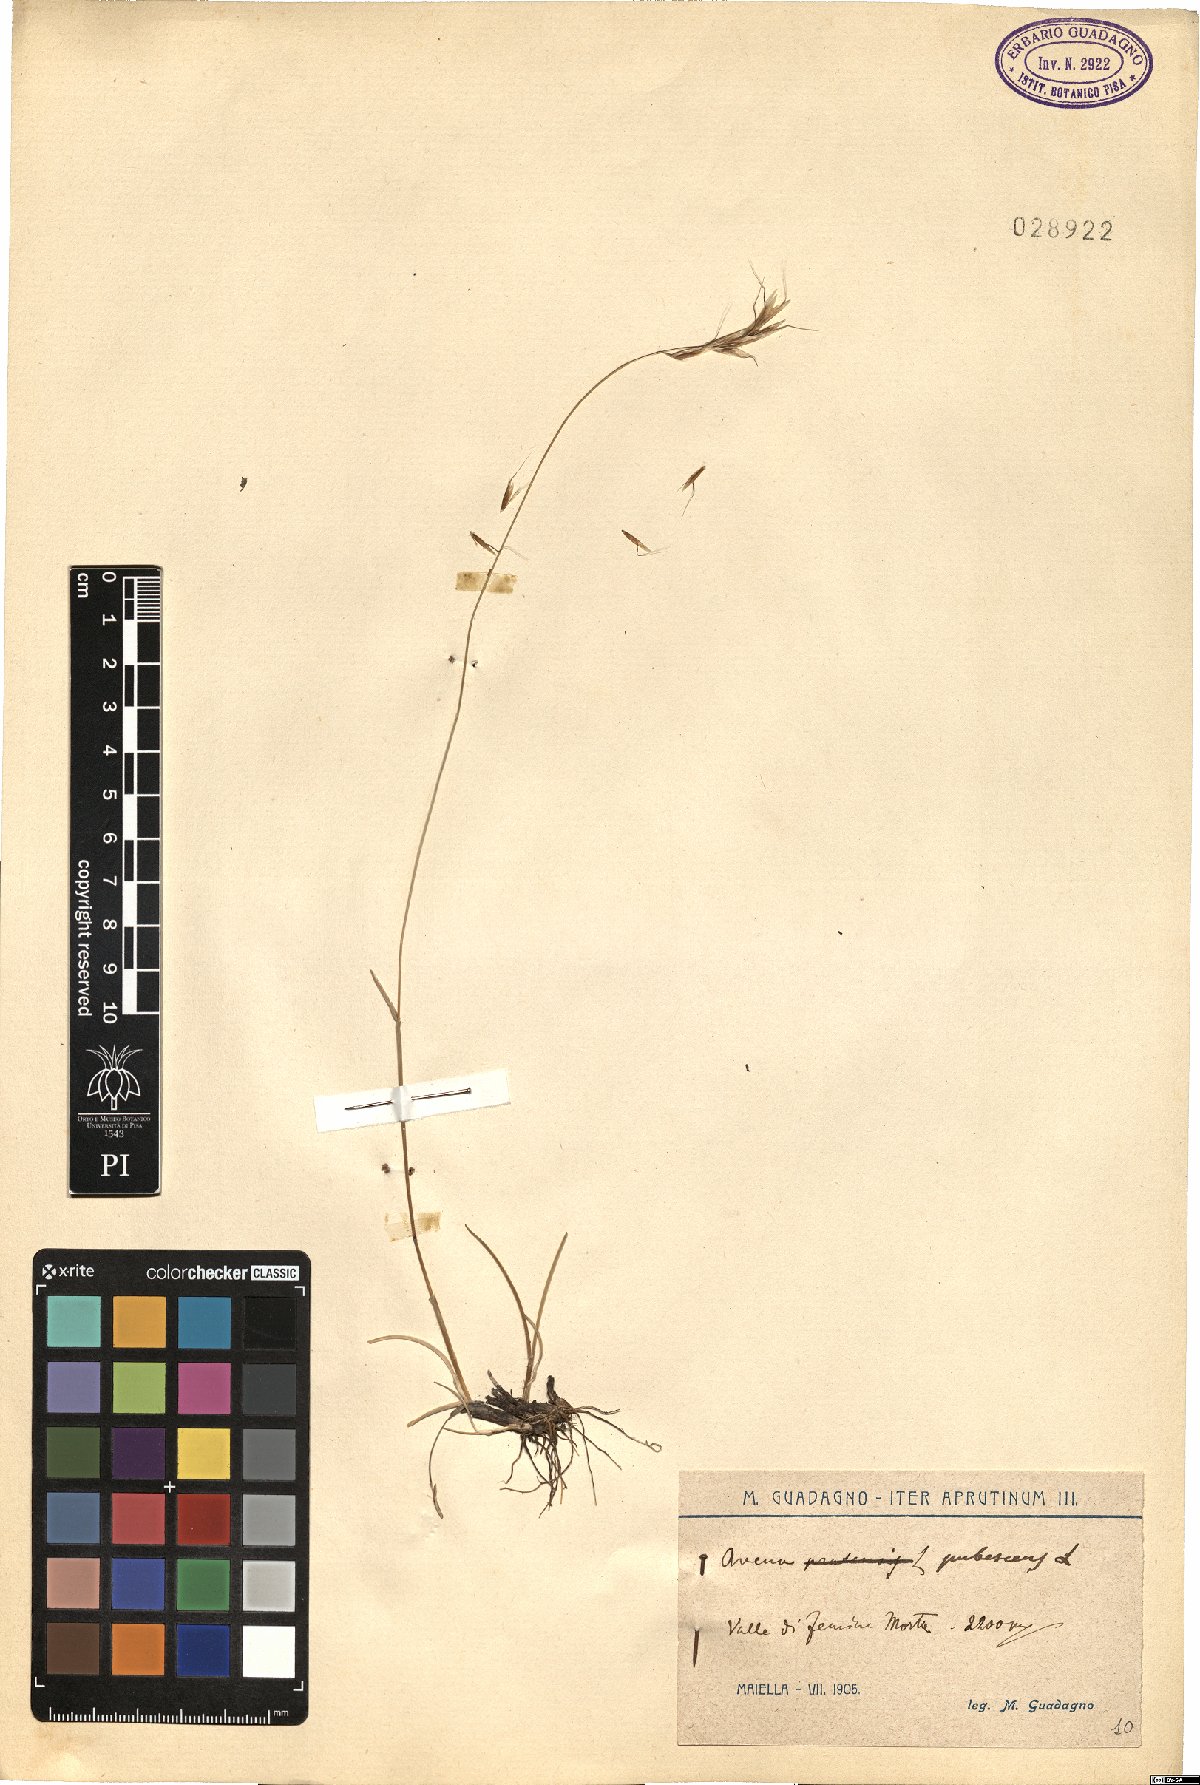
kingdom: Plantae
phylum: Tracheophyta
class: Liliopsida
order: Poales
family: Poaceae
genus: Avenula
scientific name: Avenula pubescens
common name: Downy alpine oatgrass
